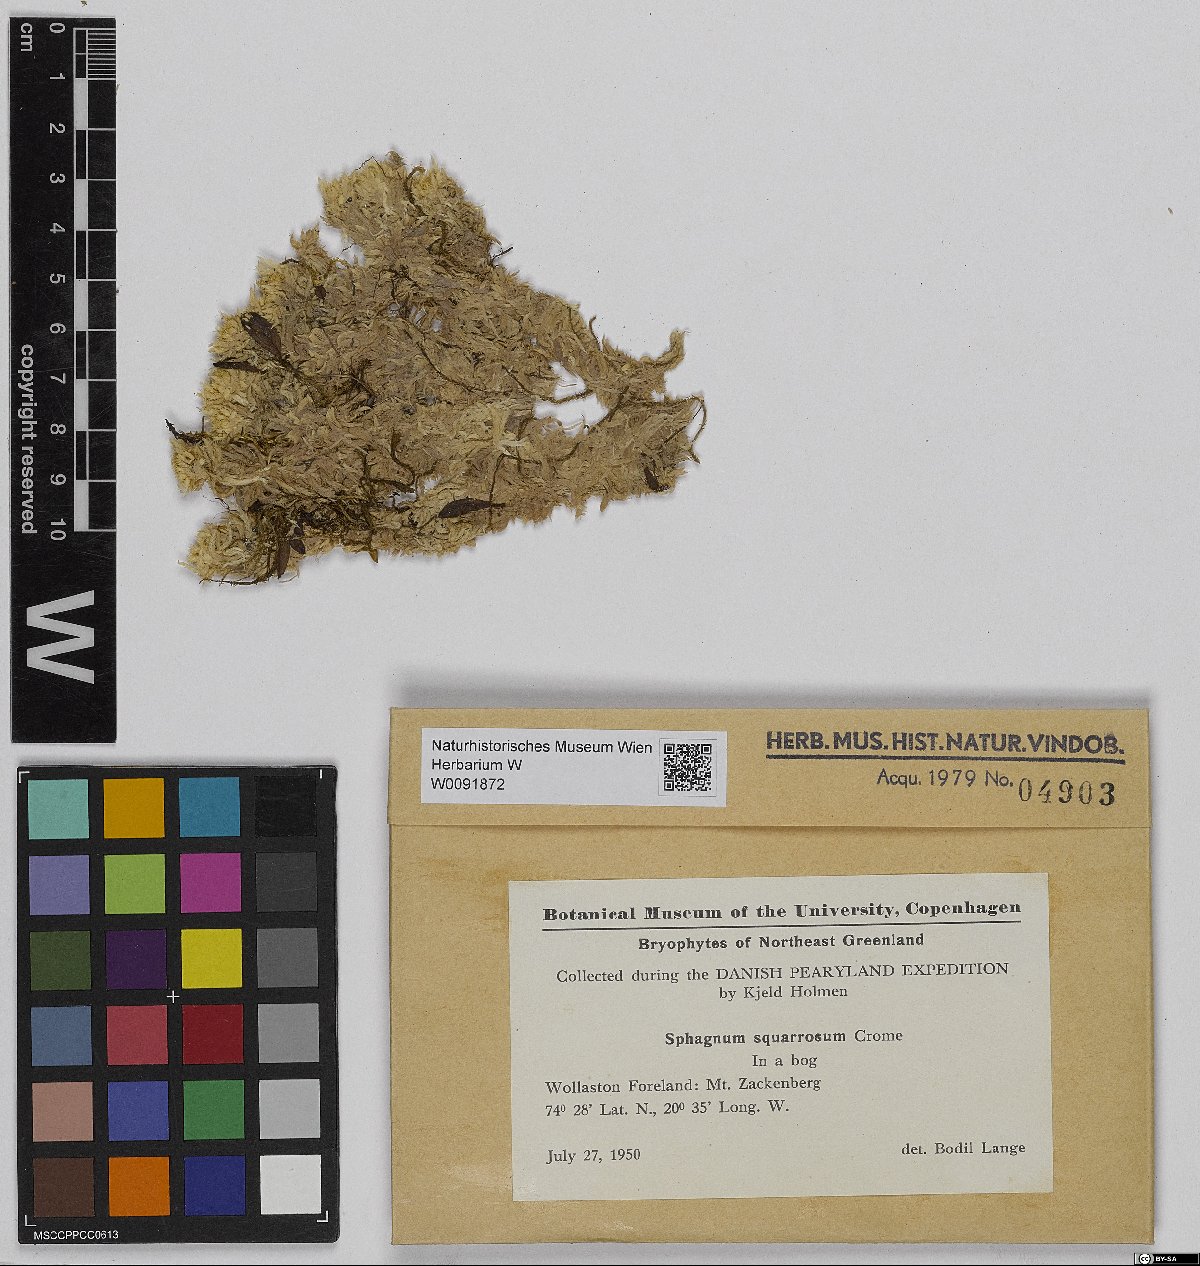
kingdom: Plantae
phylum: Bryophyta
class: Sphagnopsida
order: Sphagnales
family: Sphagnaceae
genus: Sphagnum
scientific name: Sphagnum squarrosum
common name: Shaggy peat moss
